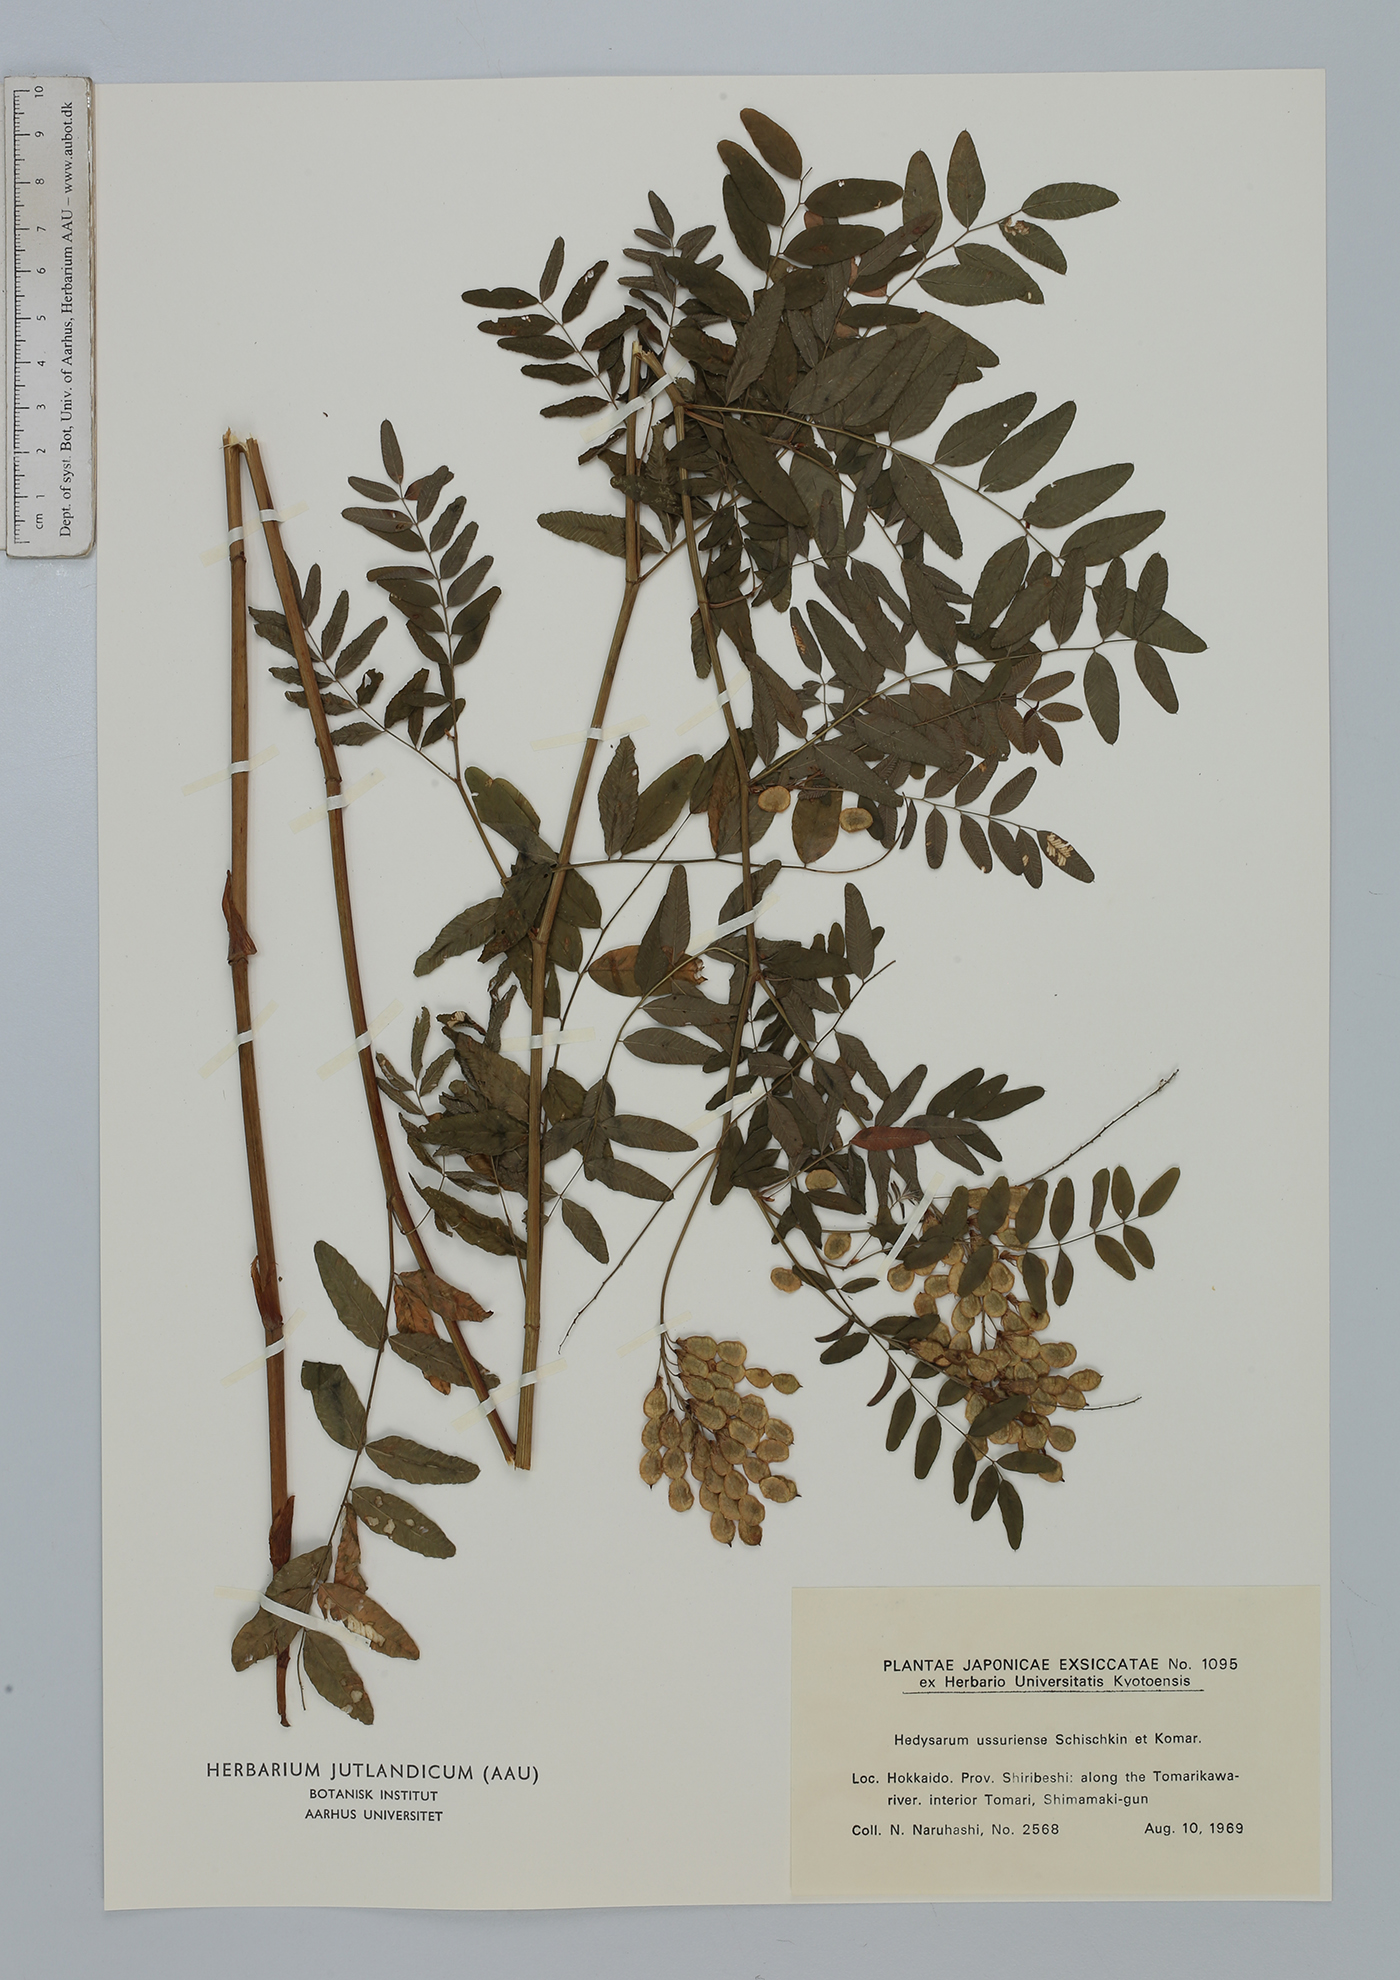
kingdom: Plantae
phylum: Tracheophyta
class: Magnoliopsida
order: Fabales
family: Fabaceae
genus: Hedysarum
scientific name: Hedysarum vicioides
